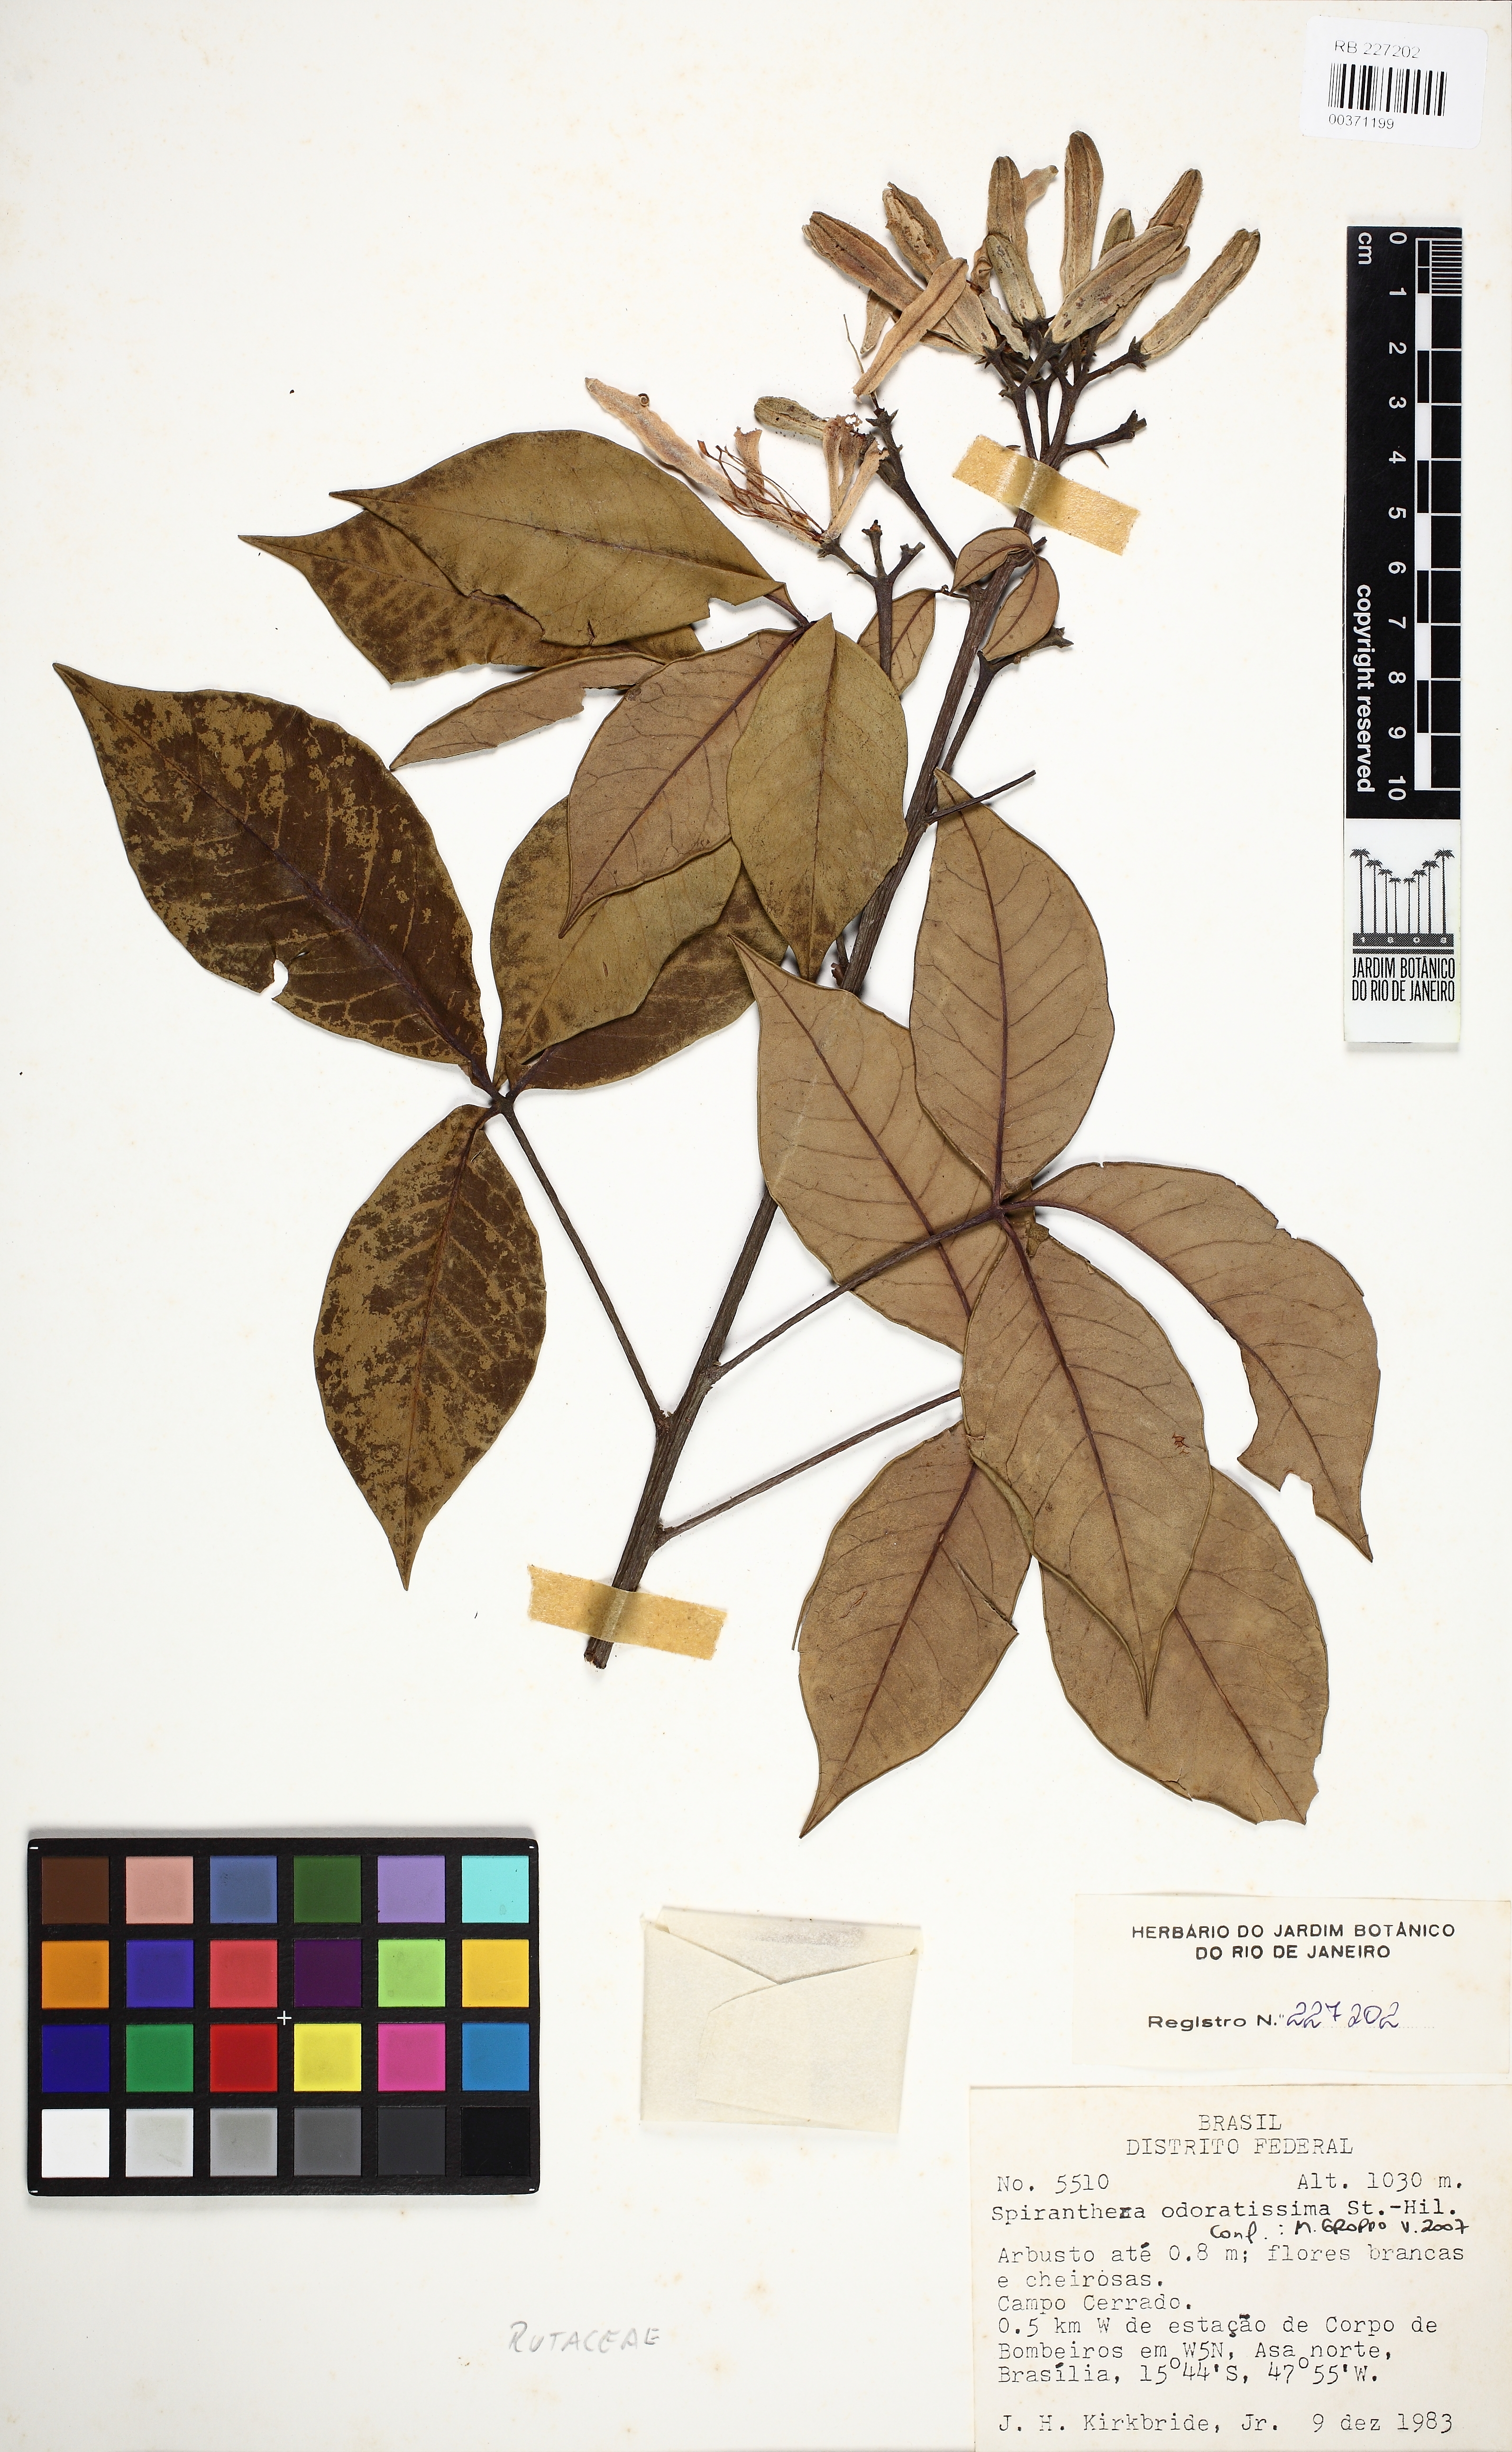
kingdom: Plantae
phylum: Tracheophyta
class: Magnoliopsida
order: Sapindales
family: Rutaceae
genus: Spiranthera
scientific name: Spiranthera odoratissima
